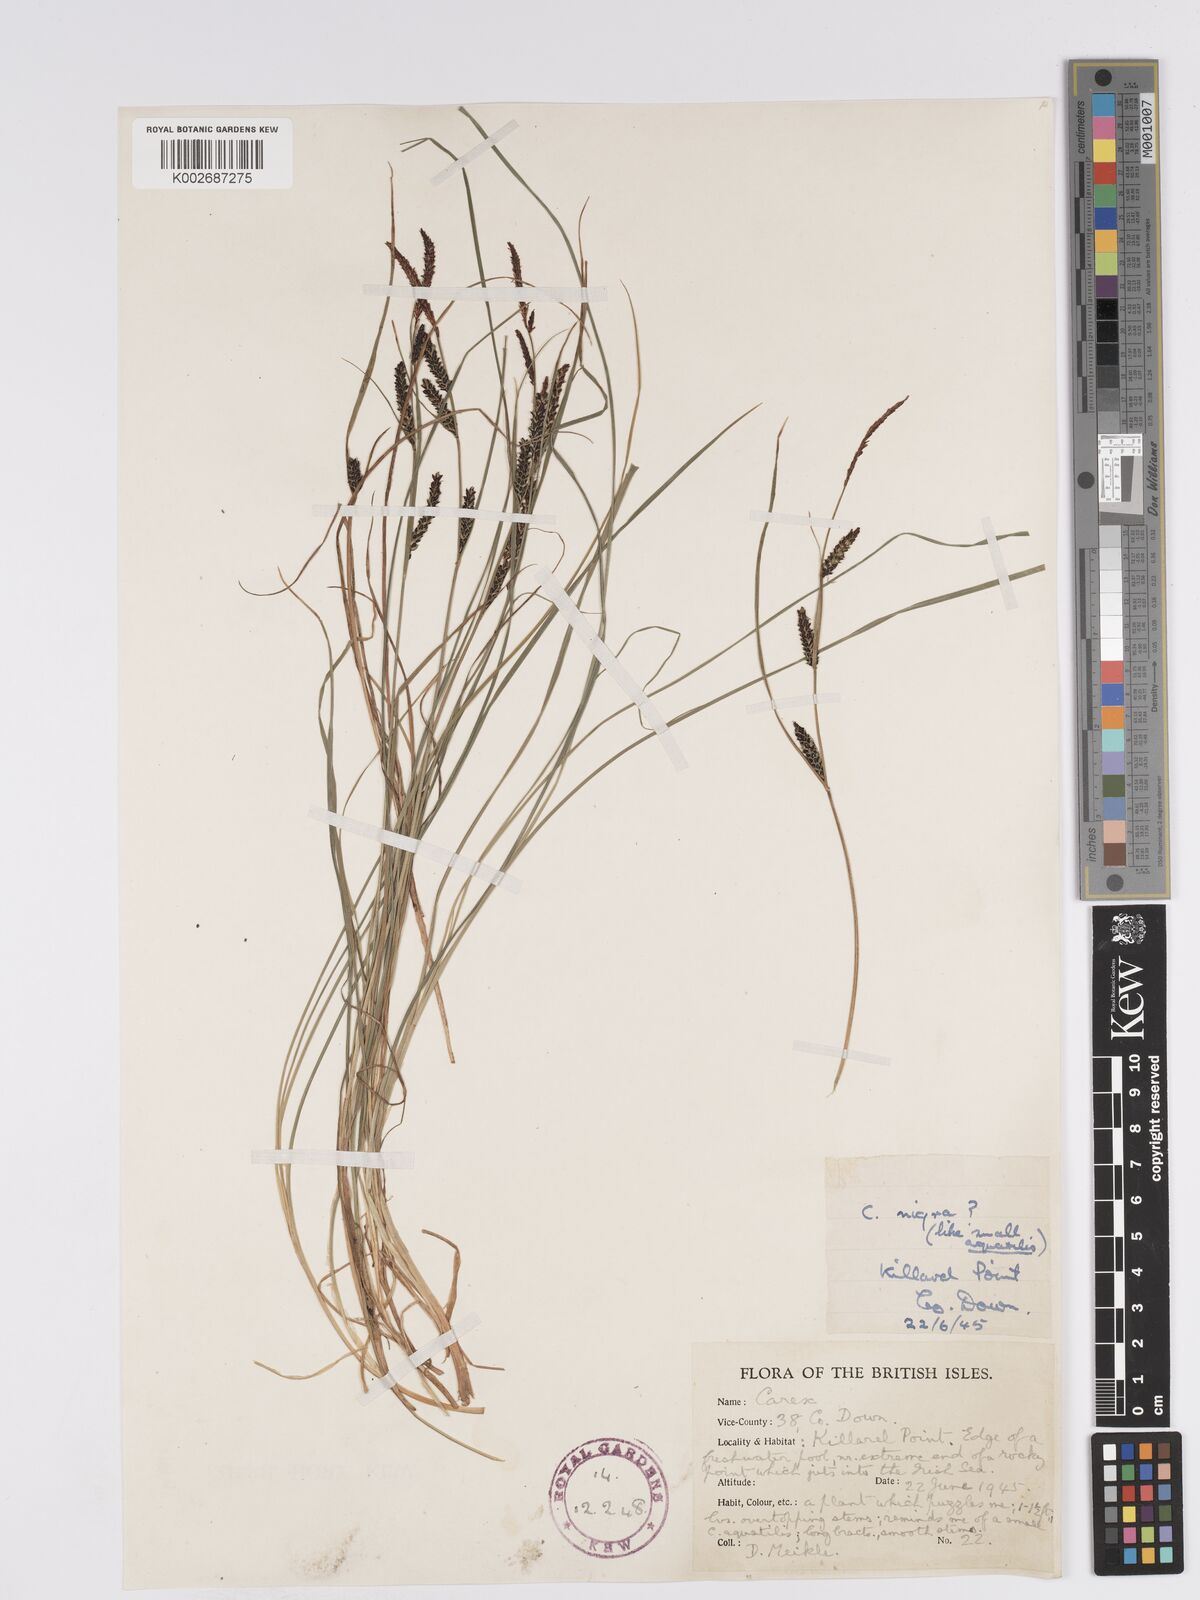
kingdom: Plantae
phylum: Tracheophyta
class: Liliopsida
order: Poales
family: Cyperaceae
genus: Carex
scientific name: Carex nigra
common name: Common sedge
